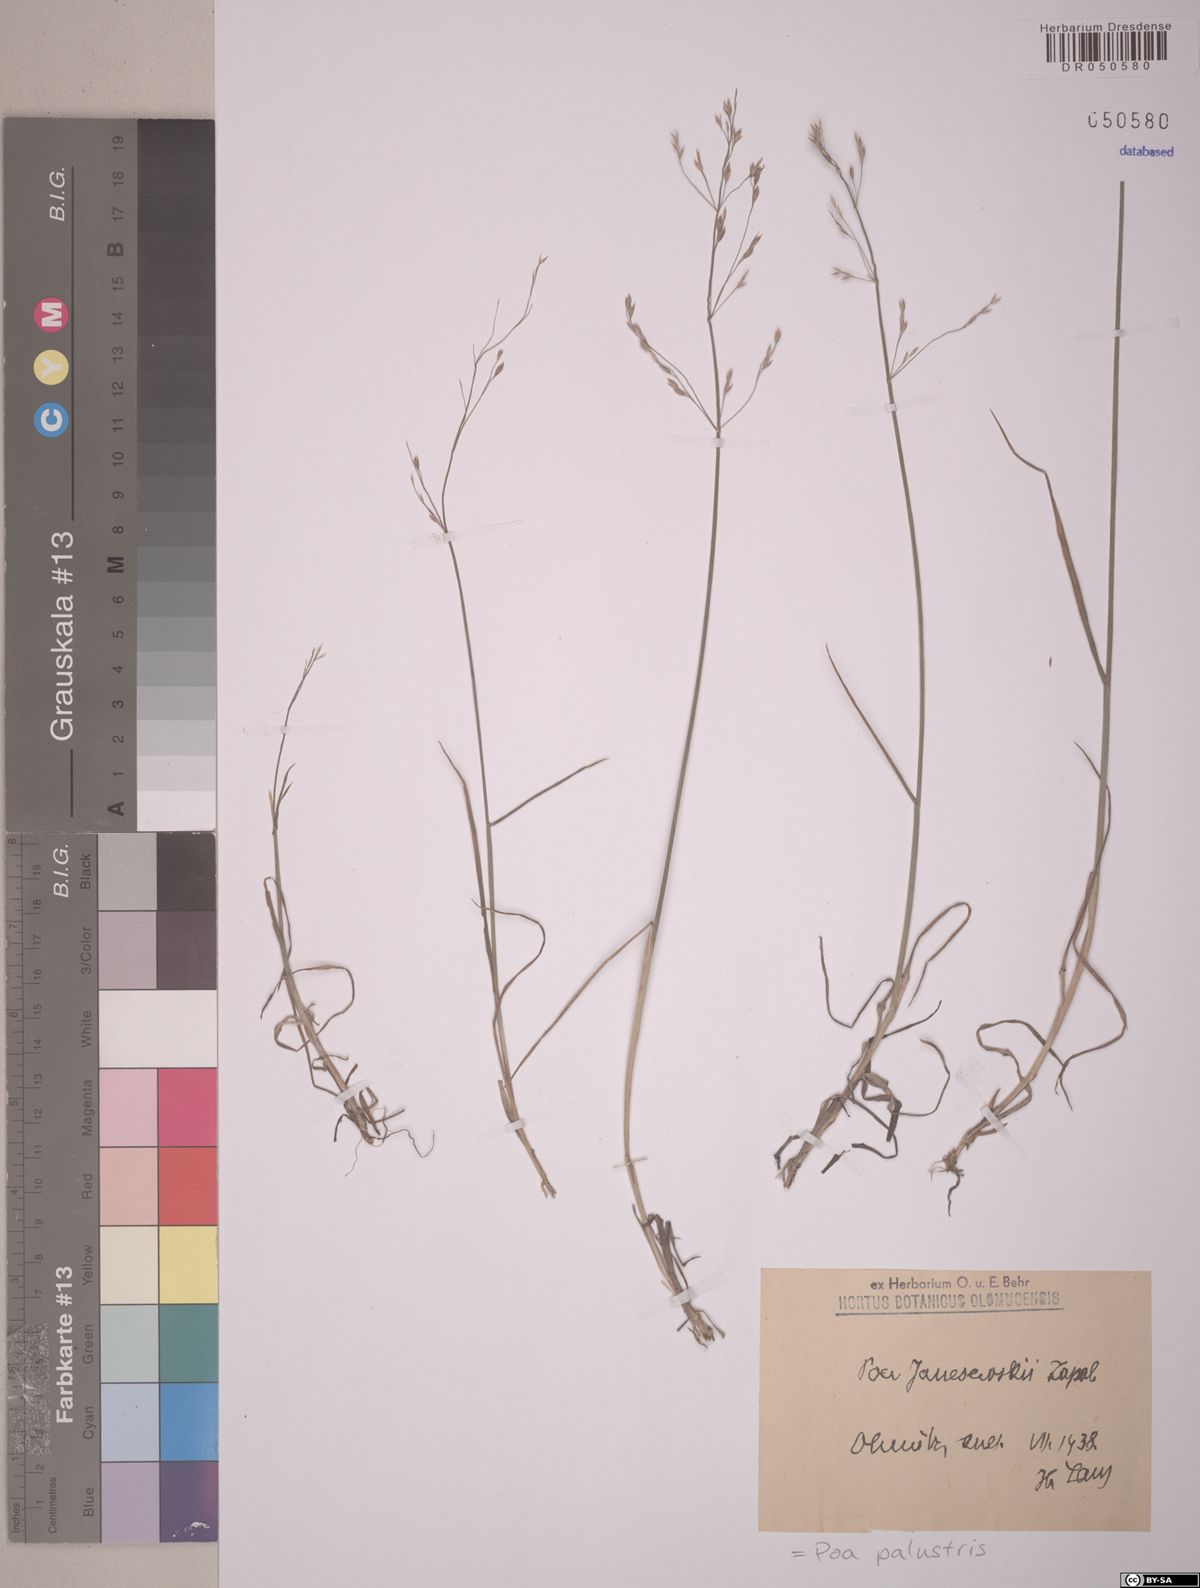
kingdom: Plantae
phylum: Tracheophyta
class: Liliopsida
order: Poales
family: Poaceae
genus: Poa
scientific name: Poa palustris
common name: Swamp meadow-grass
